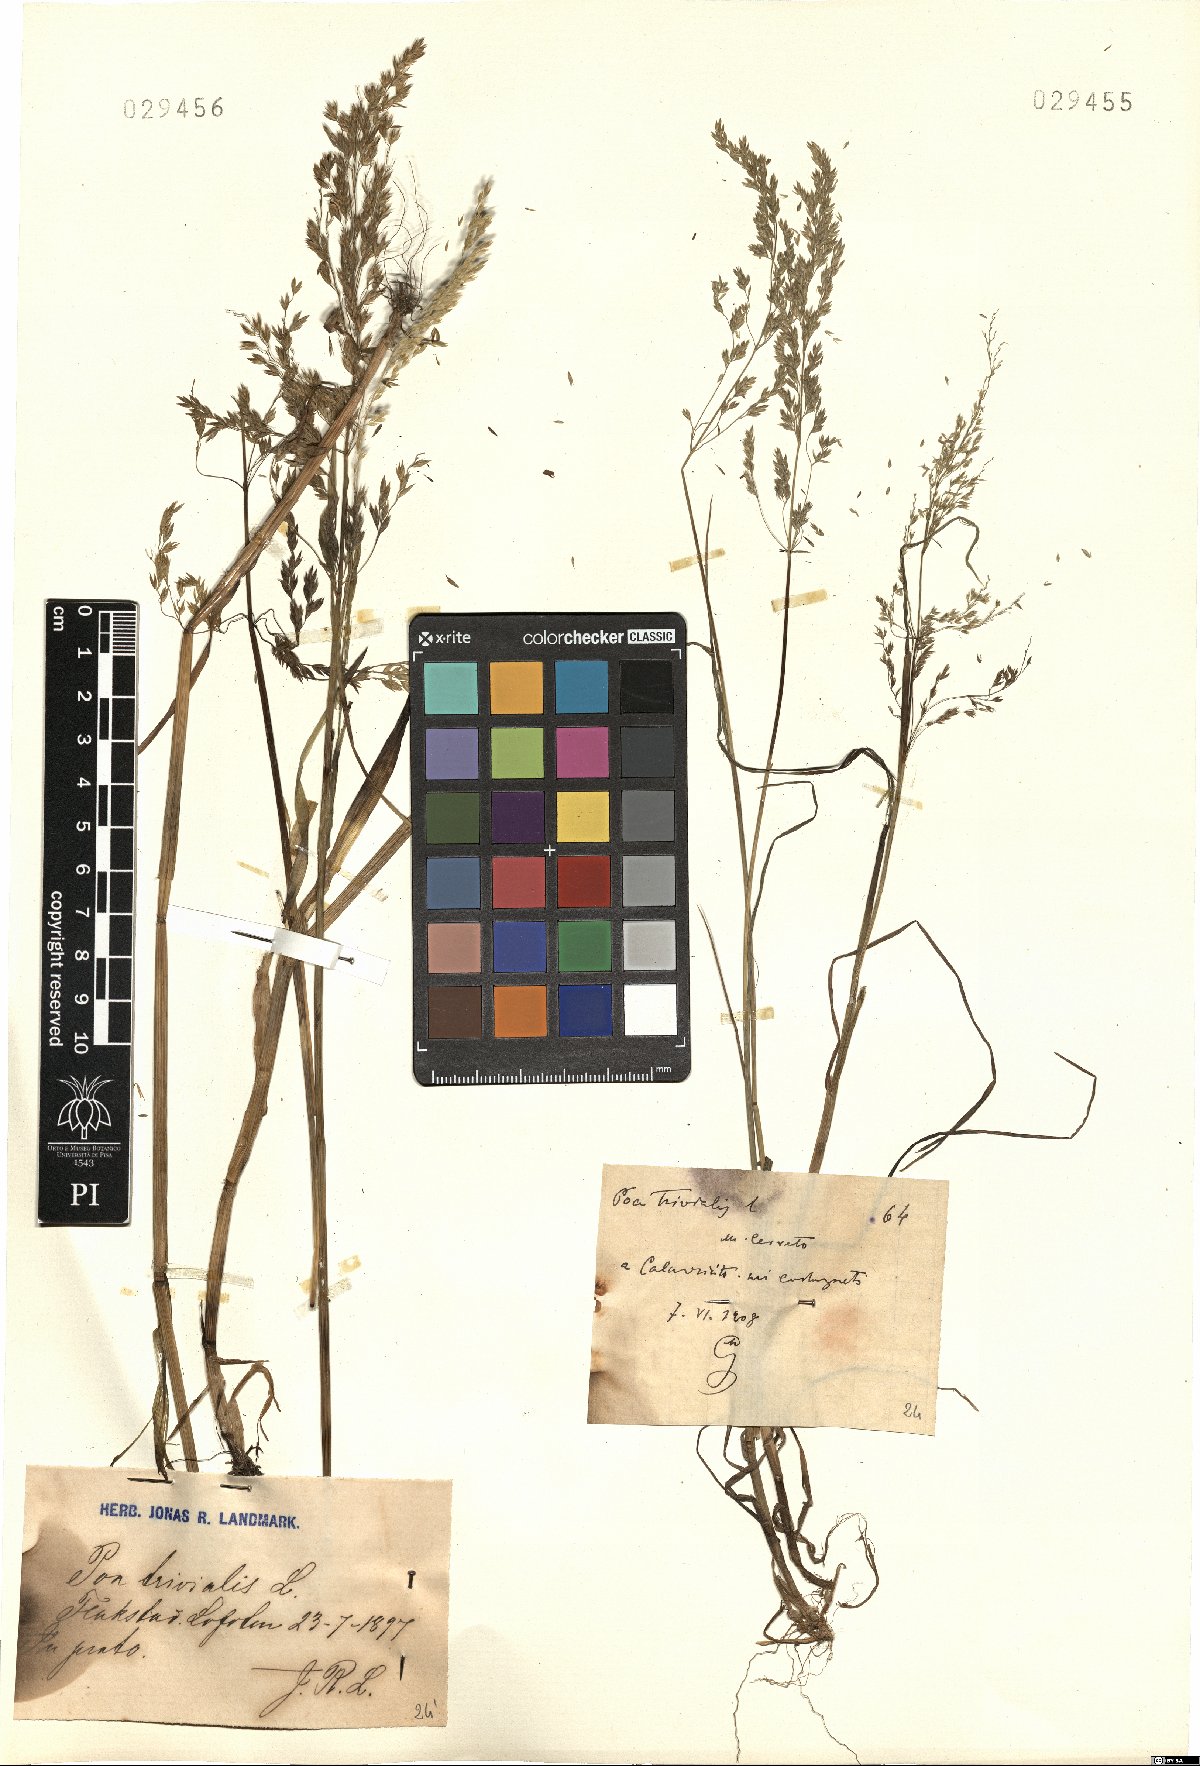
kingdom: Plantae
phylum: Tracheophyta
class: Liliopsida
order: Poales
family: Poaceae
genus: Poa
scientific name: Poa trivialis
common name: Rough bluegrass
